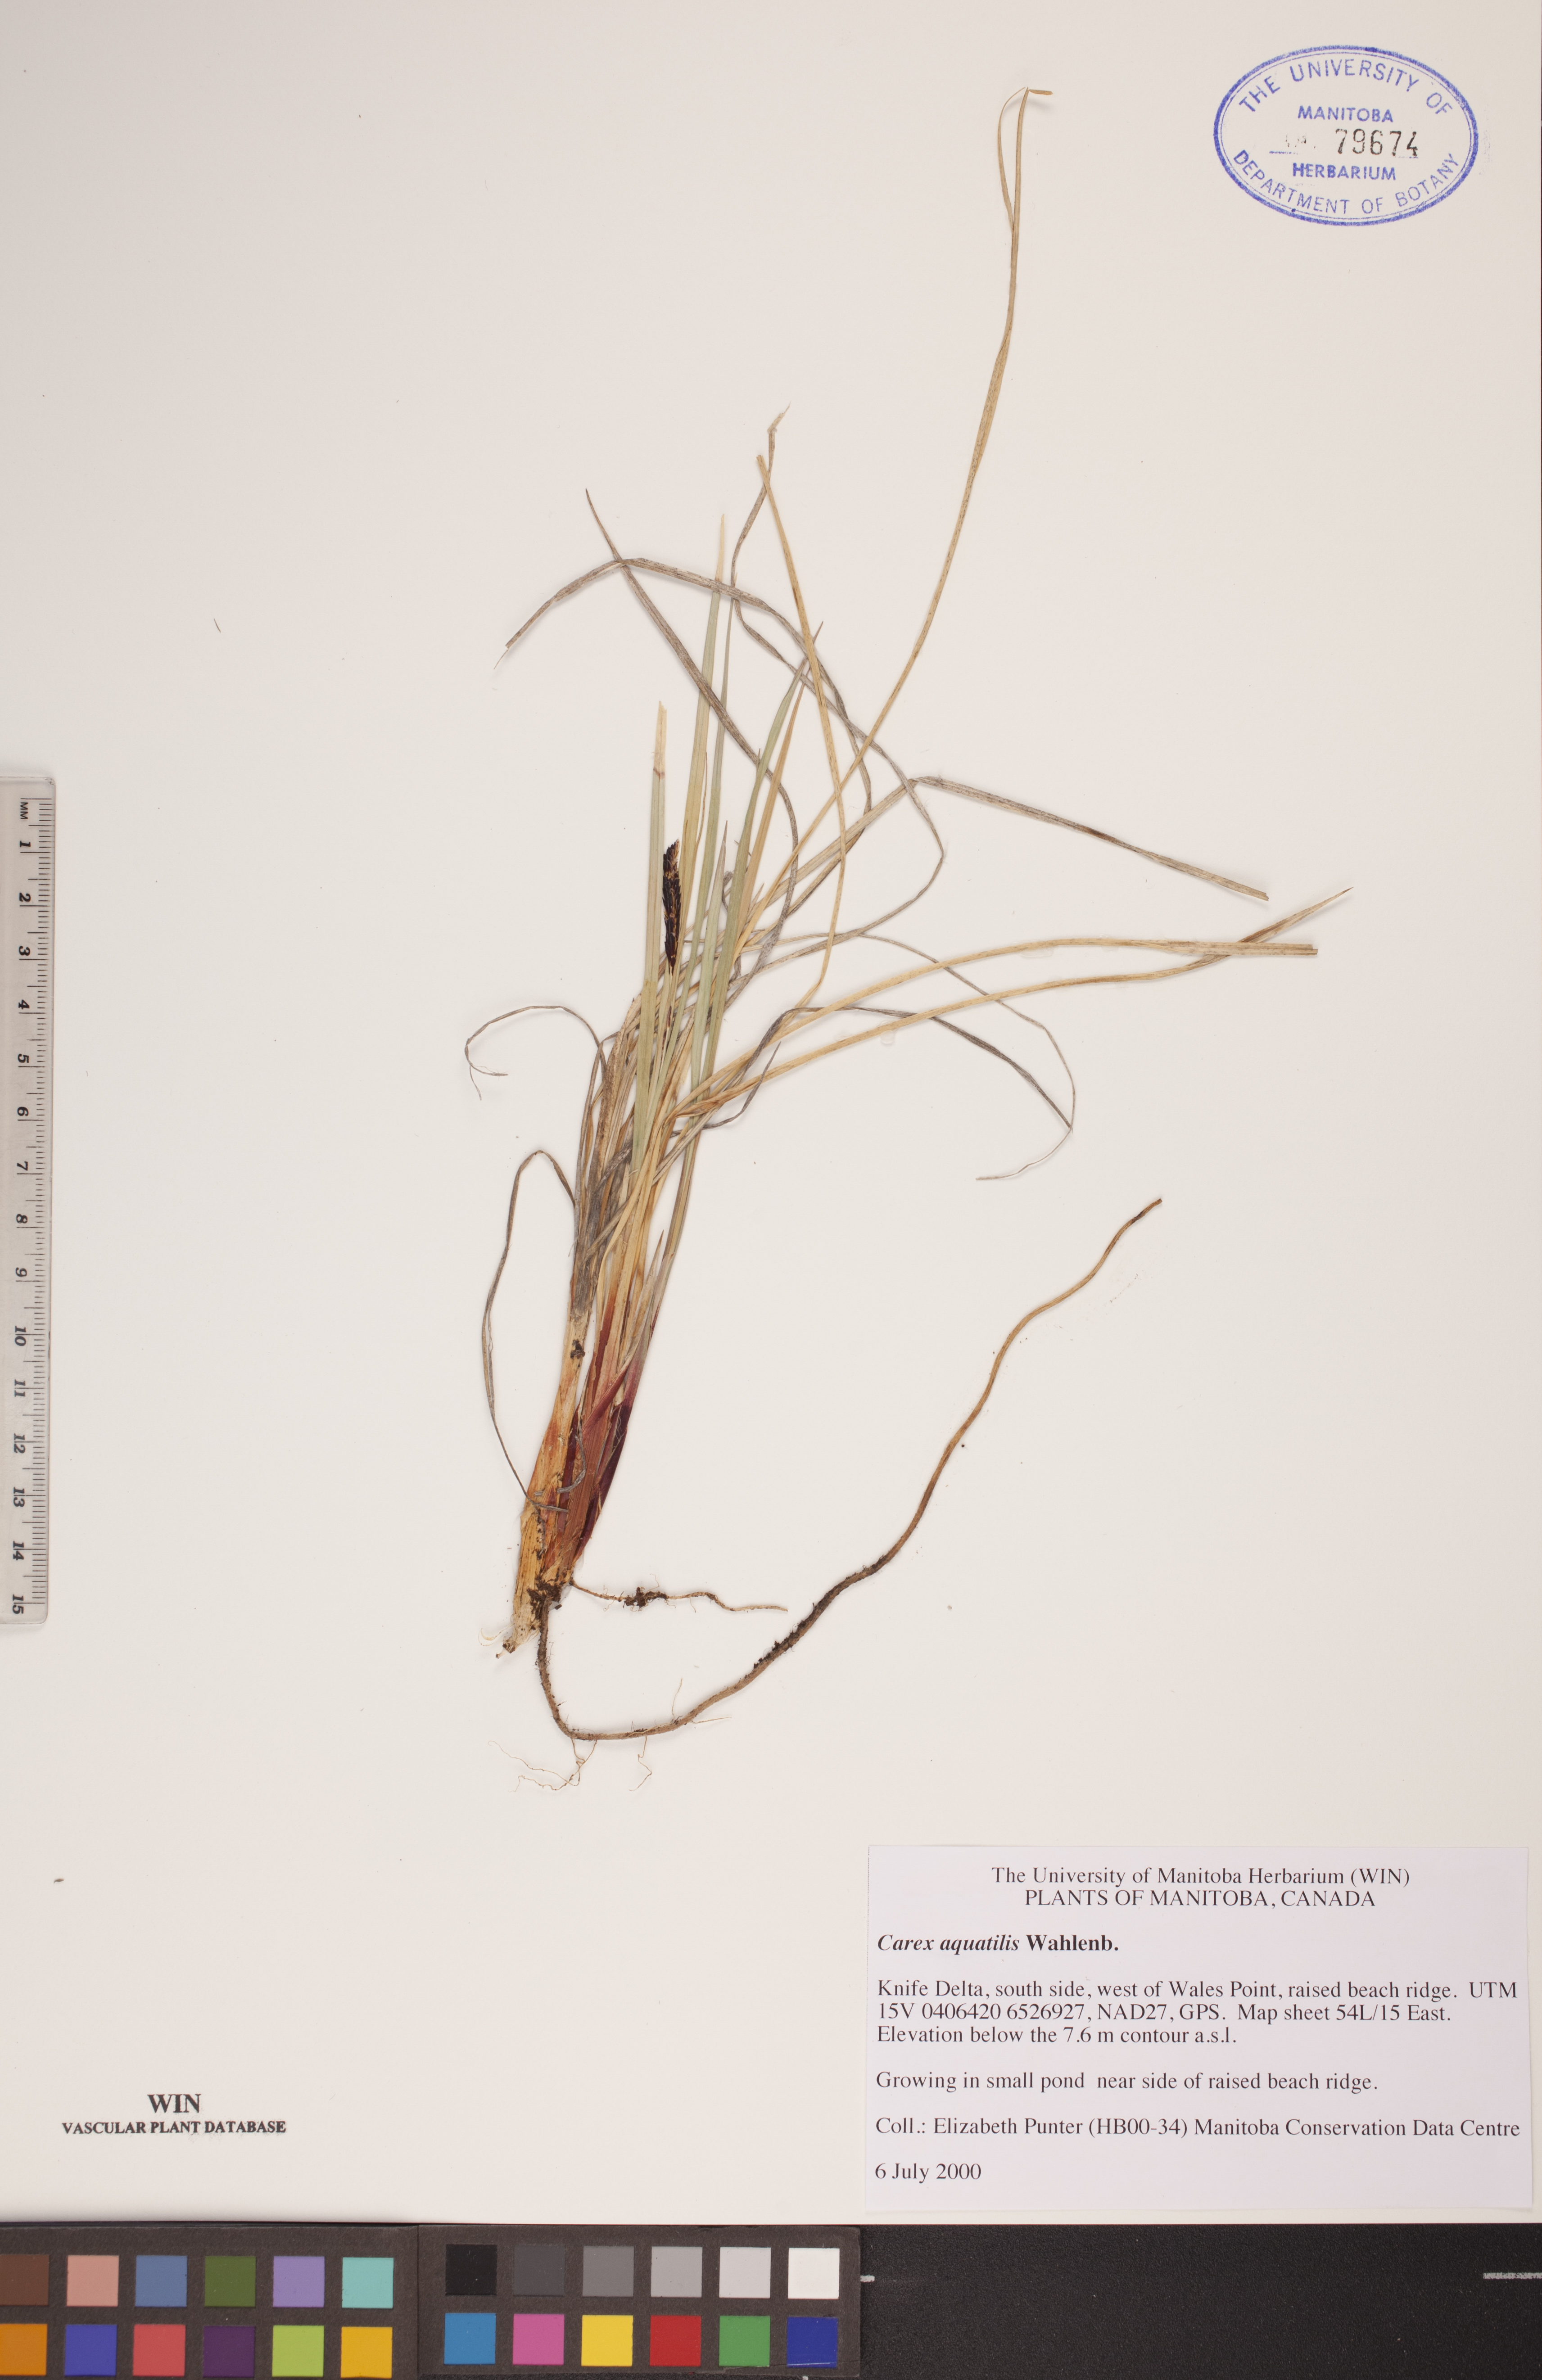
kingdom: Plantae
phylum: Tracheophyta
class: Liliopsida
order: Poales
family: Cyperaceae
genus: Carex
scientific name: Carex aquatilis
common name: Water sedge
